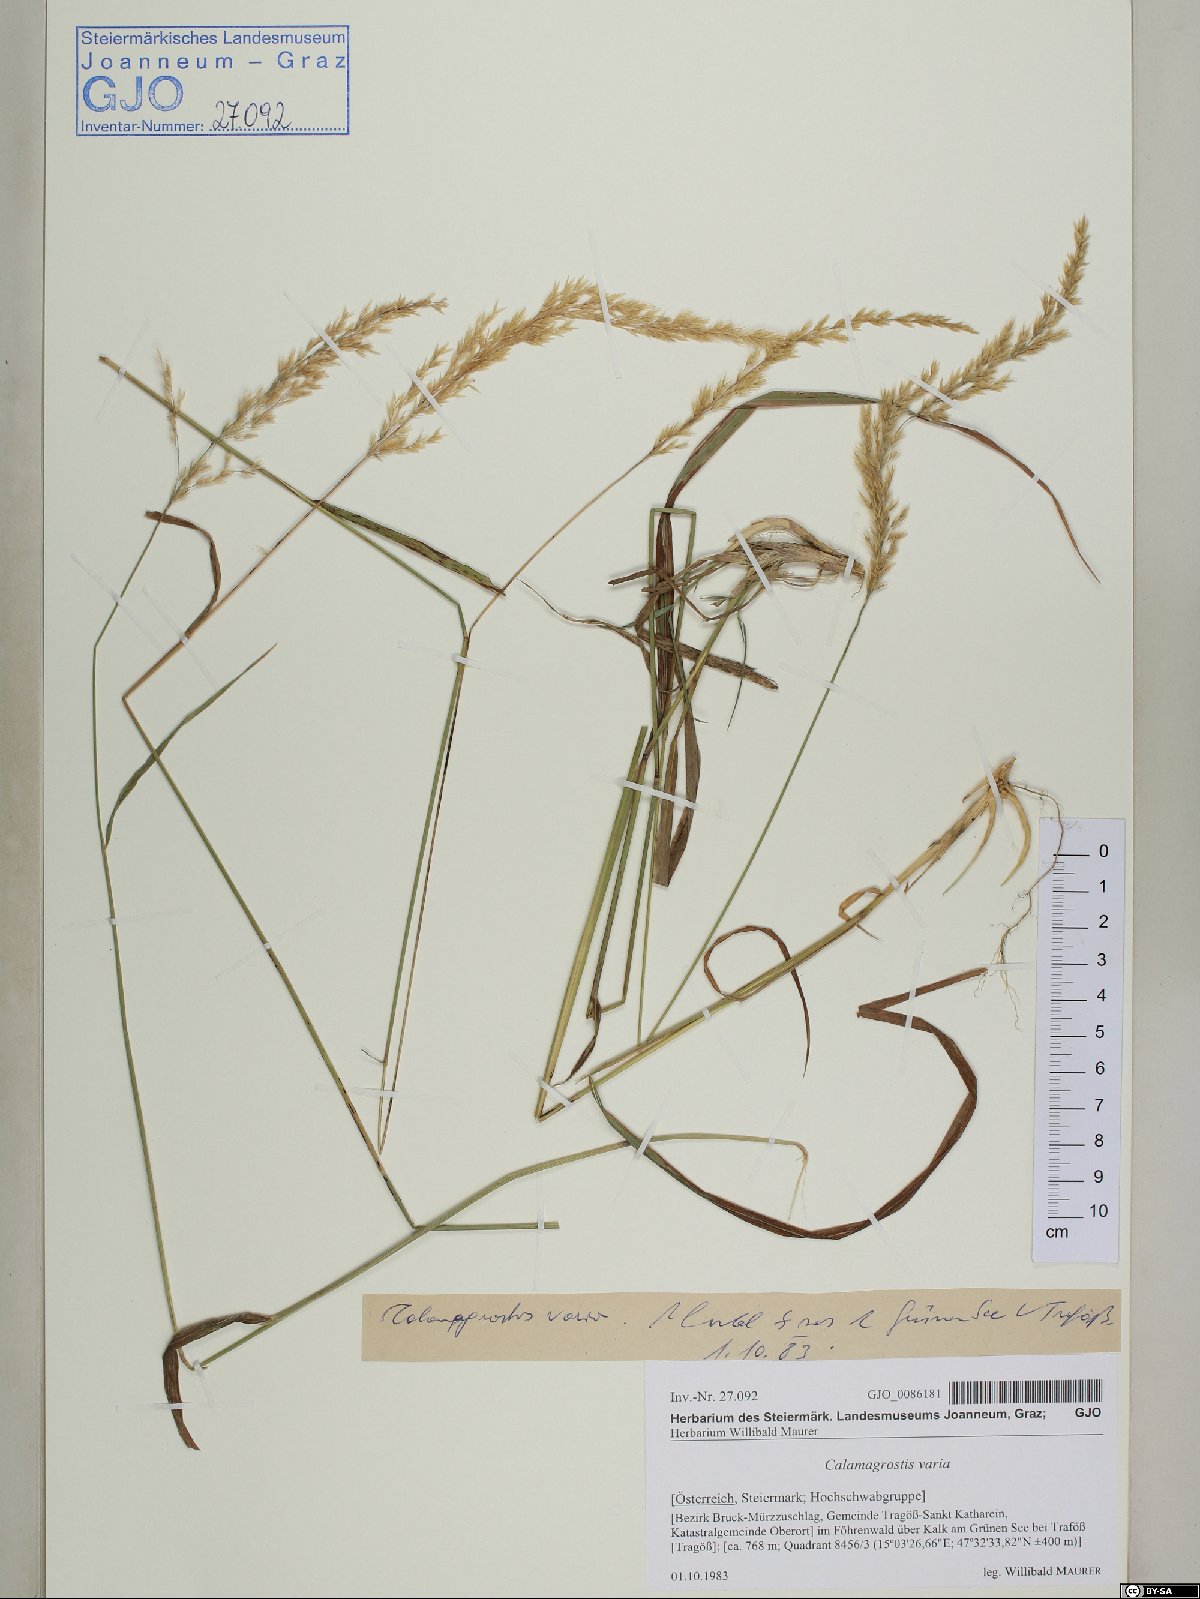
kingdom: Plantae
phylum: Tracheophyta
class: Liliopsida
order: Poales
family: Poaceae
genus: Calamagrostis
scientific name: Calamagrostis varia
